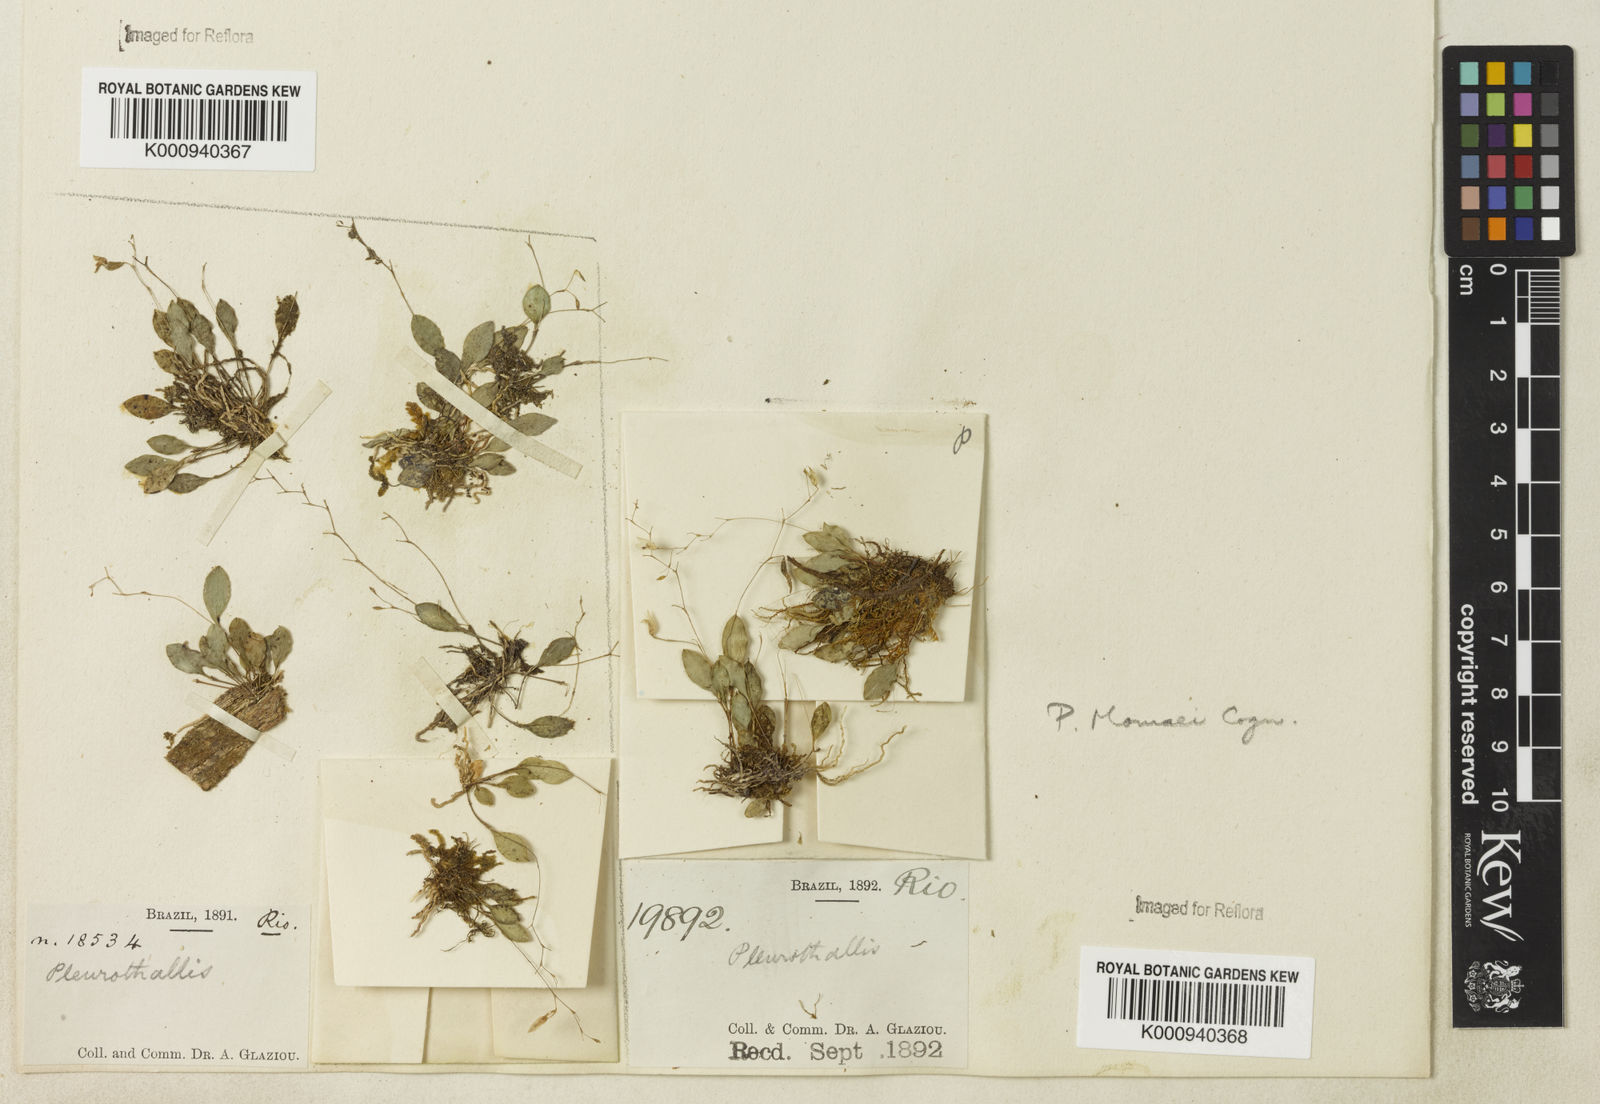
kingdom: Plantae
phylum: Tracheophyta
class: Liliopsida
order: Asparagales
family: Orchidaceae
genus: Pabstiella
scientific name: Pabstiella quadridentata
